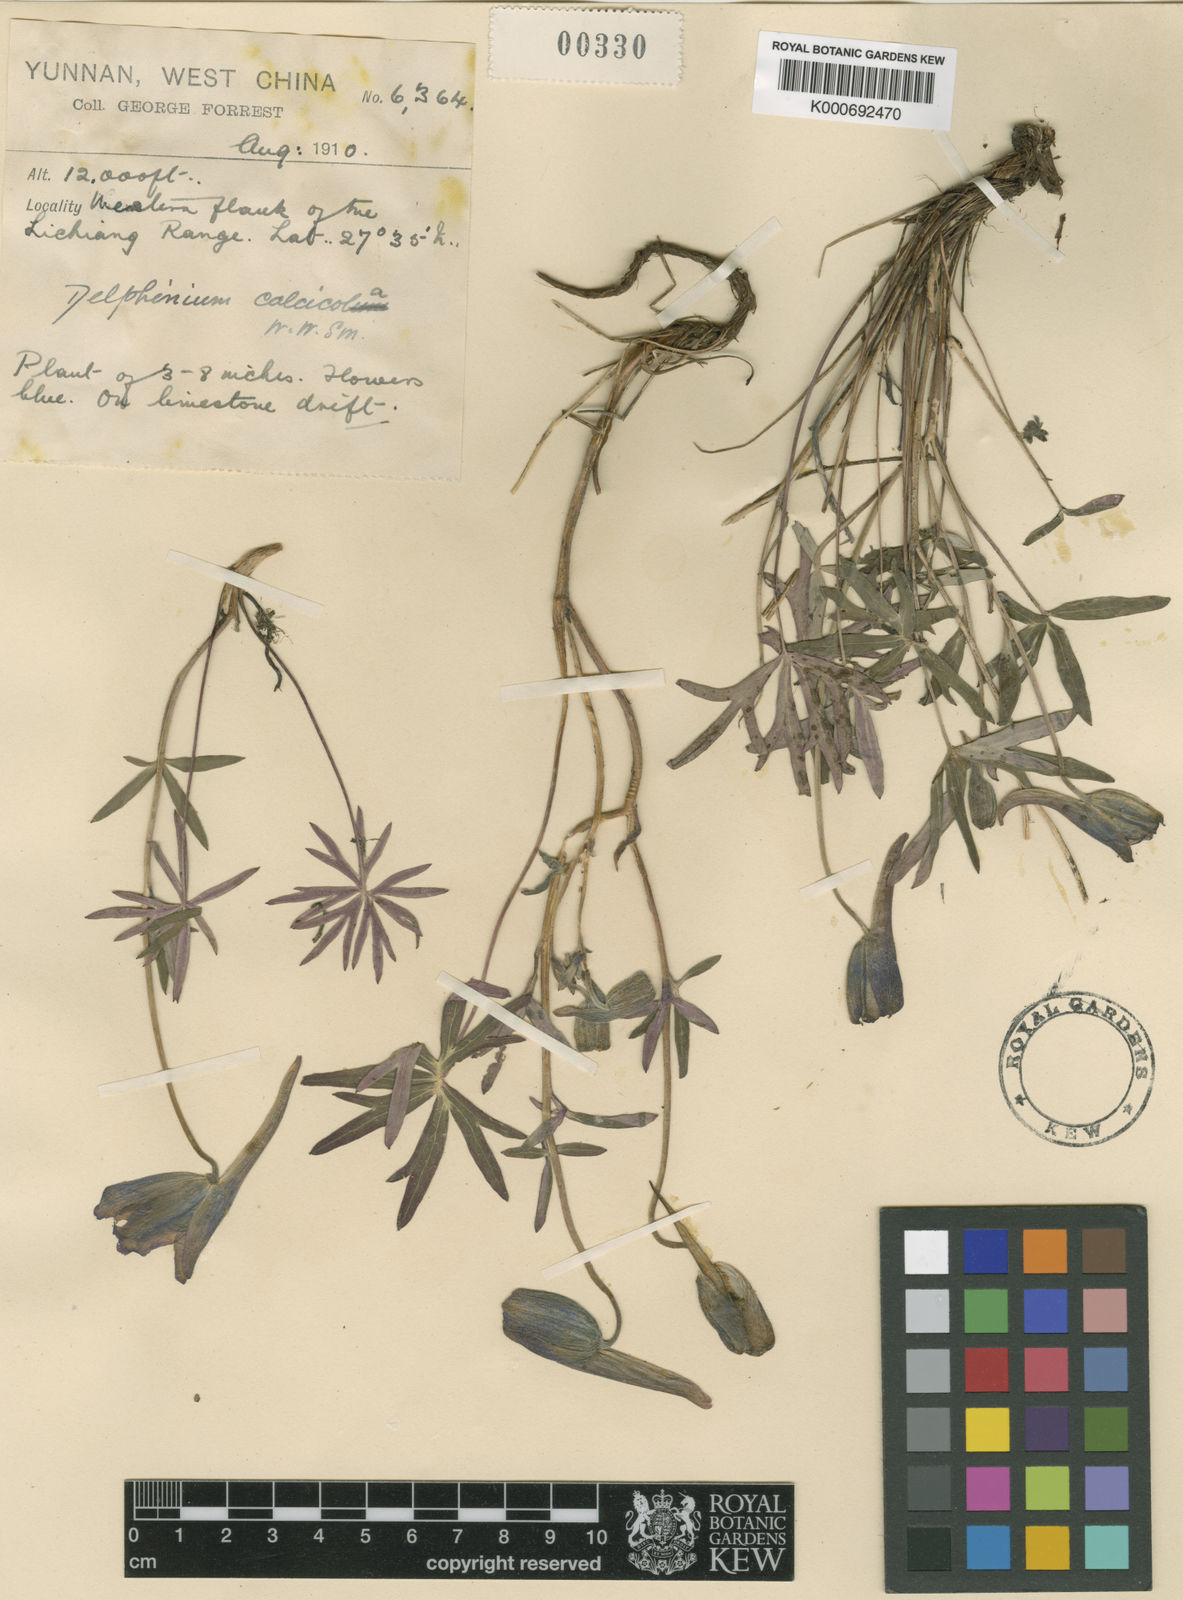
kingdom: Plantae
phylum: Tracheophyta
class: Magnoliopsida
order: Ranunculales
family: Ranunculaceae
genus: Delphinium
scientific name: Delphinium beesianum
